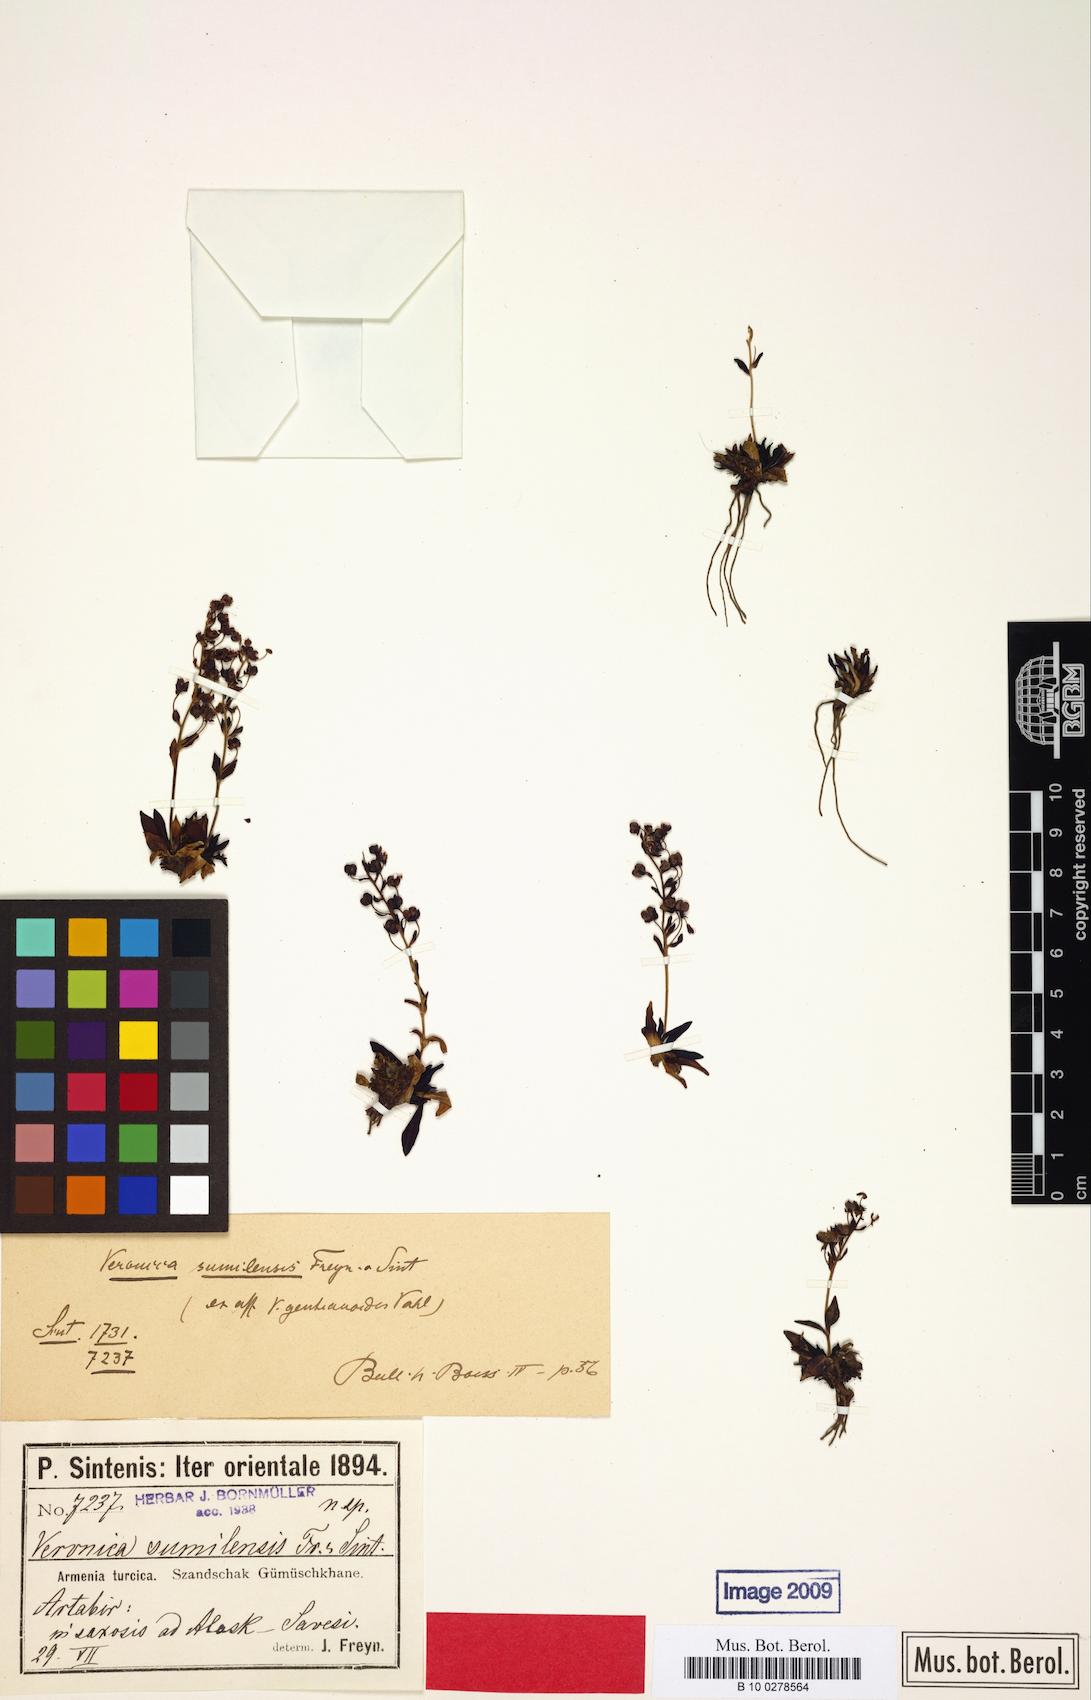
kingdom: Plantae
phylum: Tracheophyta
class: Magnoliopsida
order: Lamiales
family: Plantaginaceae
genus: Veronica
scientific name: Veronica gentianoides
